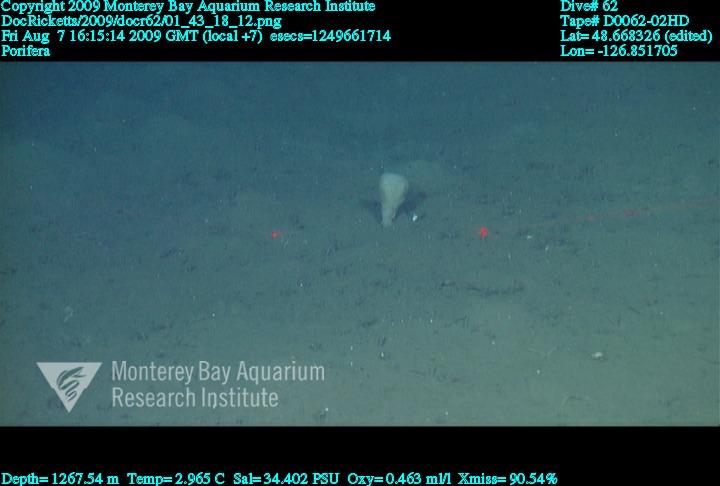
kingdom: Animalia
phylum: Porifera
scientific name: Porifera
